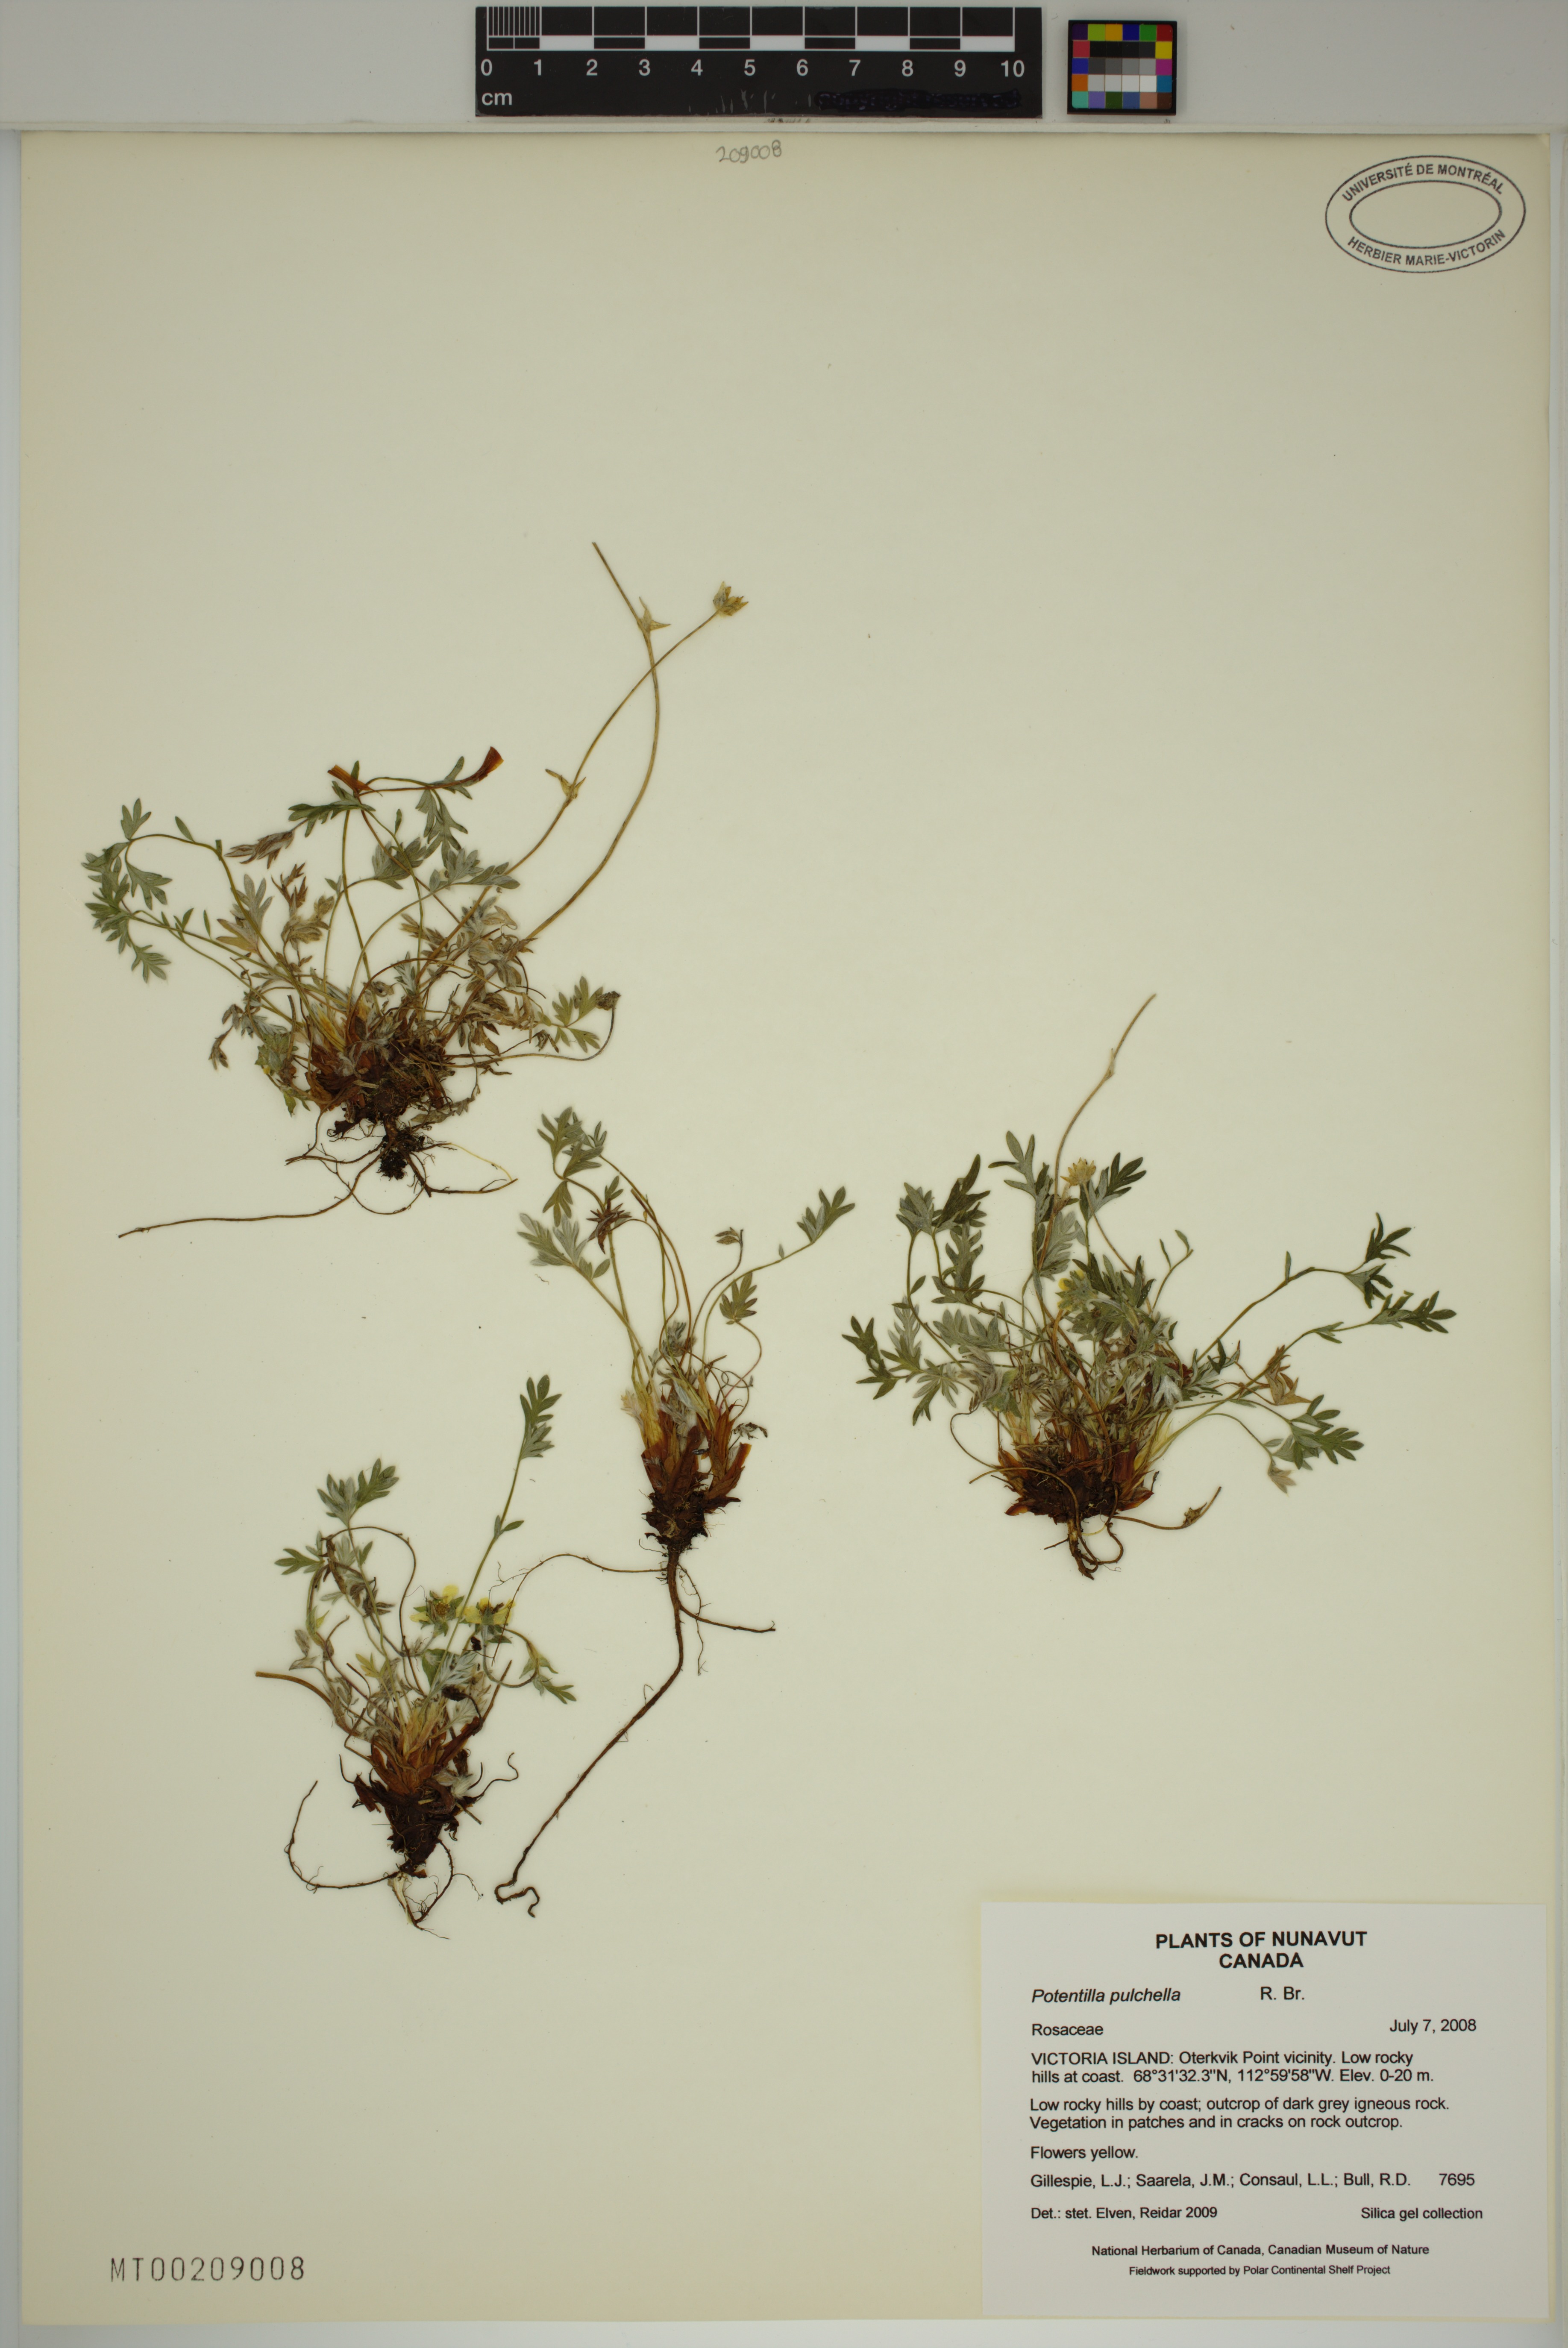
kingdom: Plantae
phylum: Tracheophyta
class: Magnoliopsida
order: Rosales
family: Rosaceae
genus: Potentilla
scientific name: Potentilla pulchella
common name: Pretty cinquefoil
